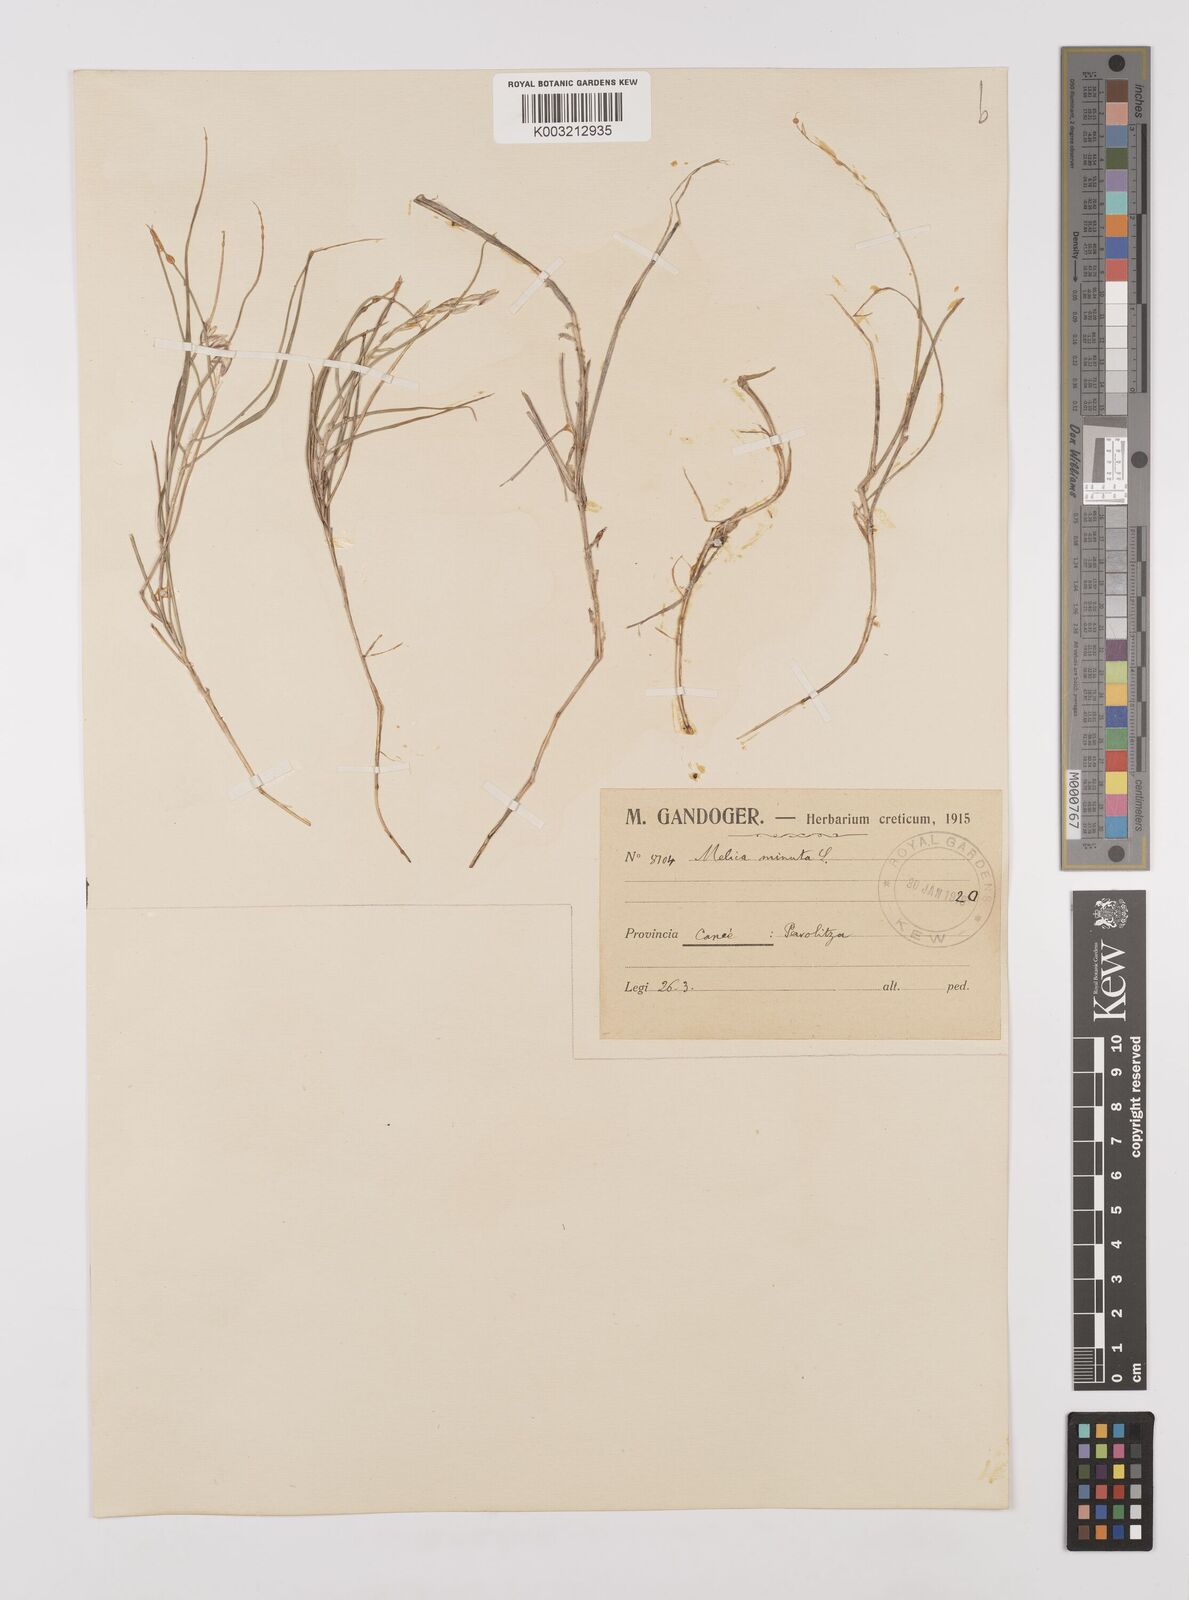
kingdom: Plantae
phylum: Tracheophyta
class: Liliopsida
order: Poales
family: Poaceae
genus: Melica
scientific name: Melica minuta
